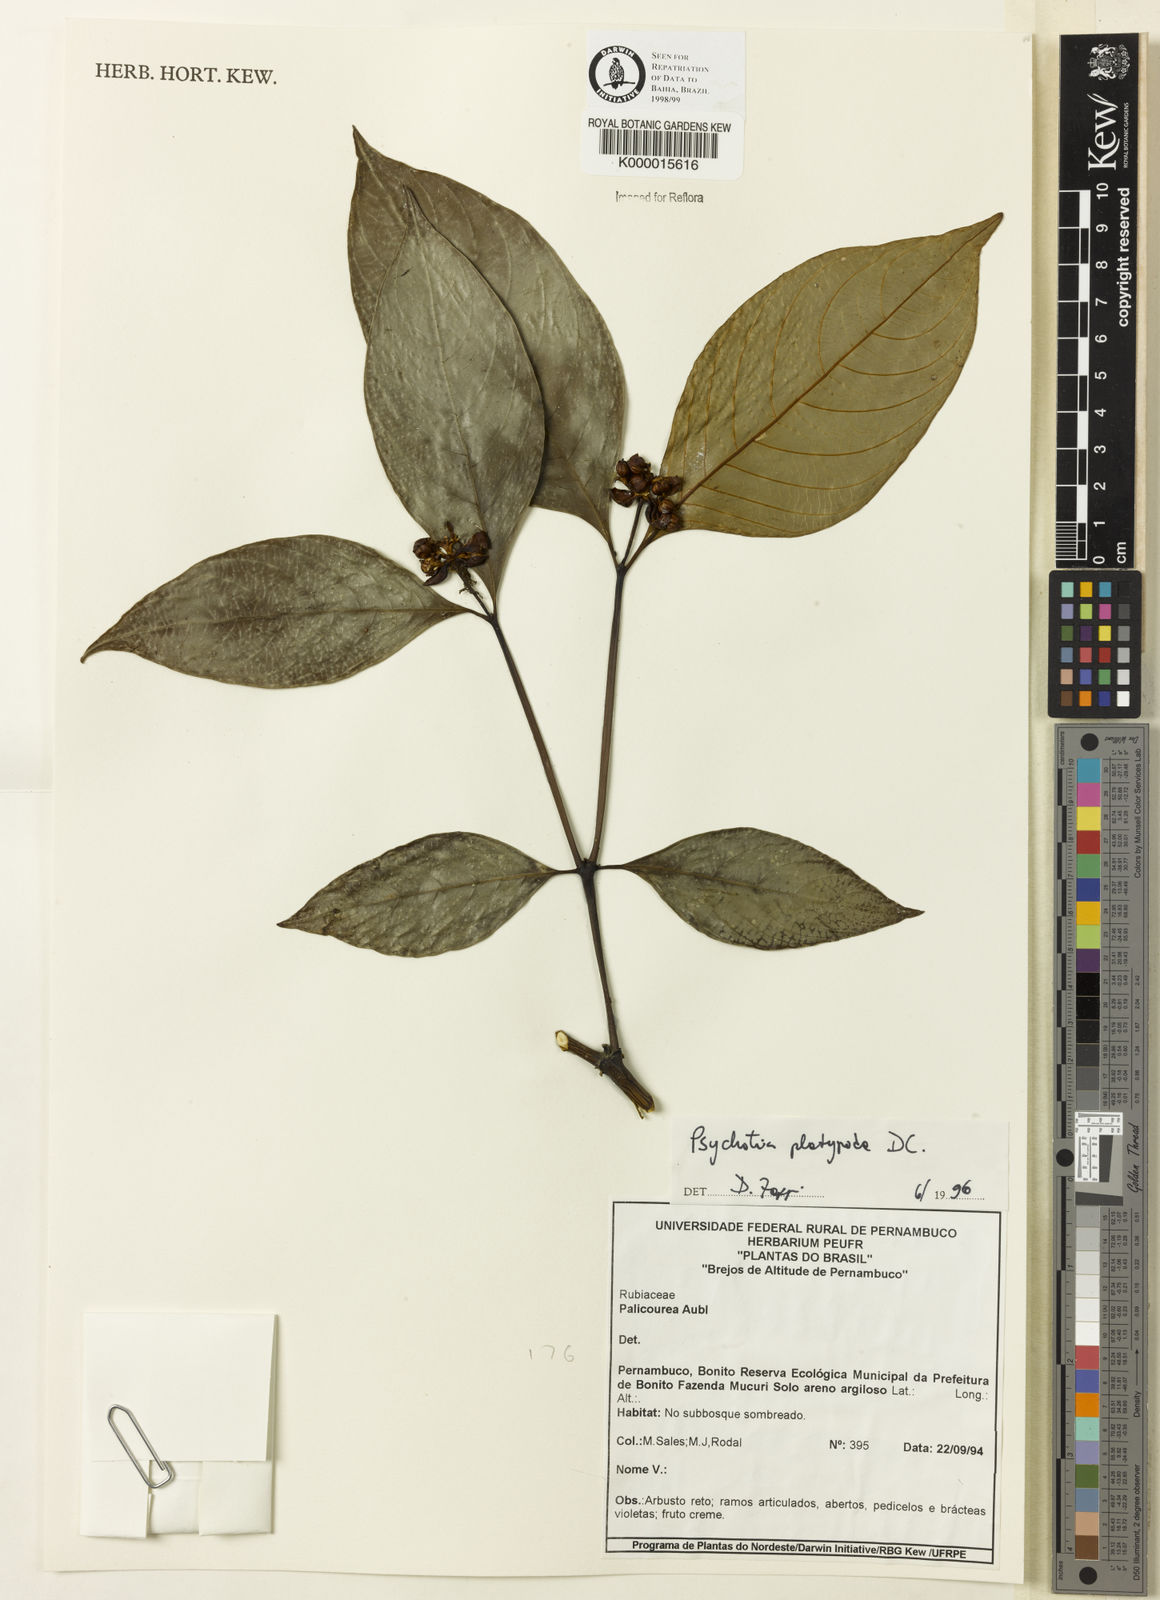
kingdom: Plantae
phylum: Tracheophyta
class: Magnoliopsida
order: Gentianales
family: Rubiaceae
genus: Palicourea
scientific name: Palicourea dichotoma
